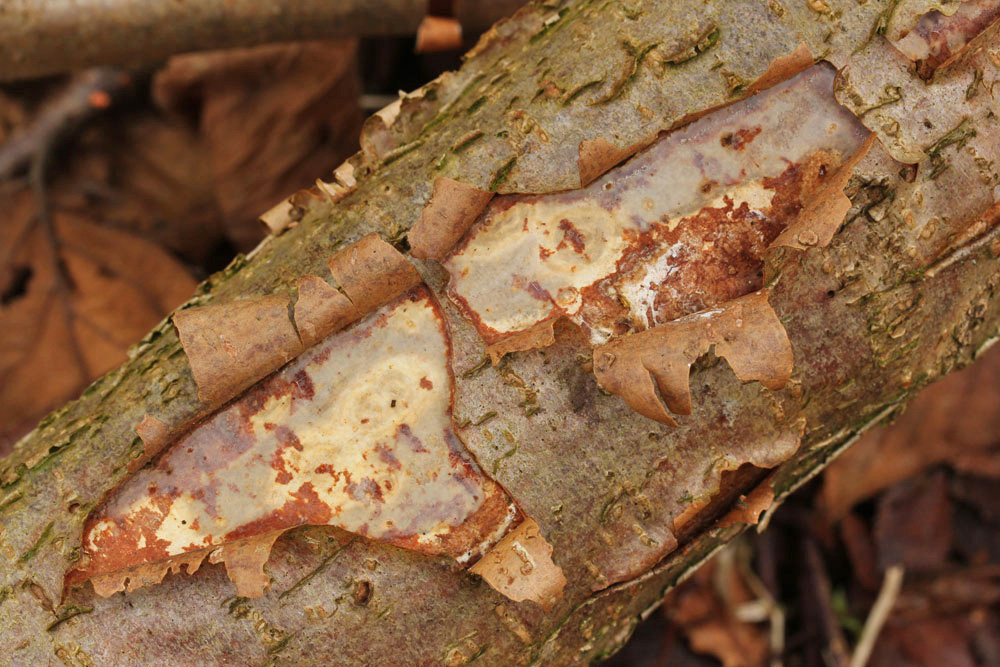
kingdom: Fungi
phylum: Basidiomycota
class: Agaricomycetes
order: Corticiales
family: Vuilleminiaceae
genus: Vuilleminia
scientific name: Vuilleminia coryli
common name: hassel-barksprænger
